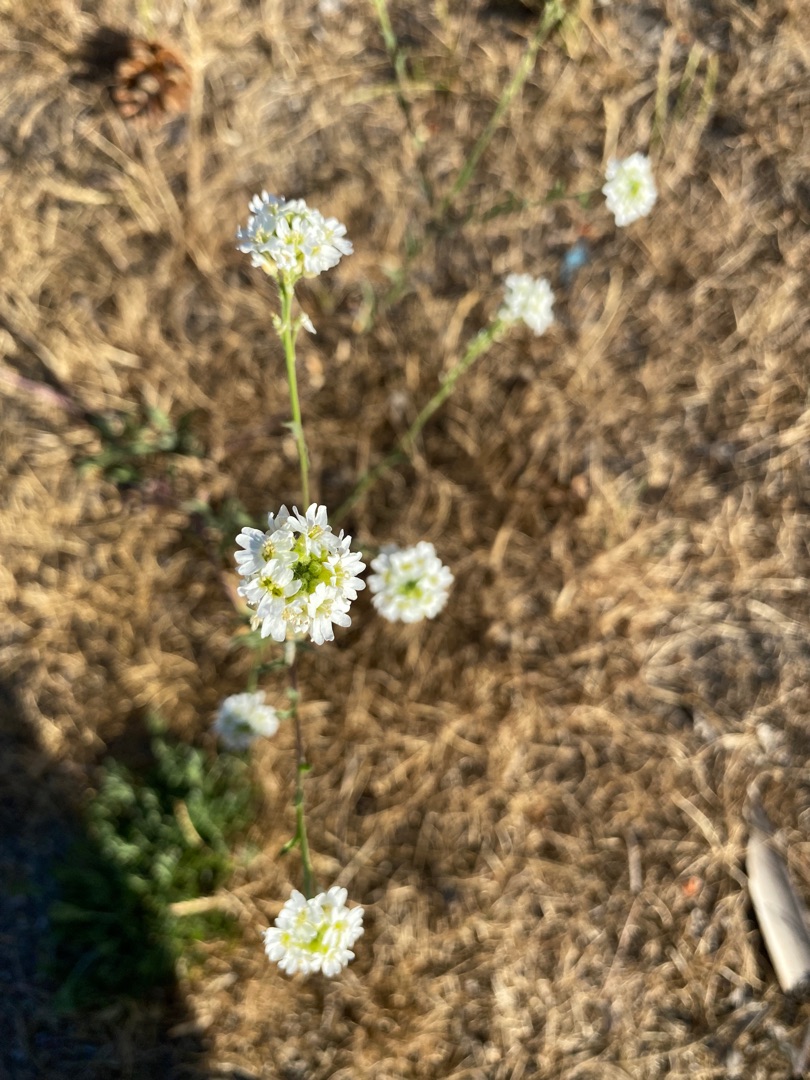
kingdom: Plantae
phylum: Tracheophyta
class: Magnoliopsida
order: Brassicales
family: Brassicaceae
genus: Berteroa
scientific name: Berteroa incana
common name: Kløvplade
